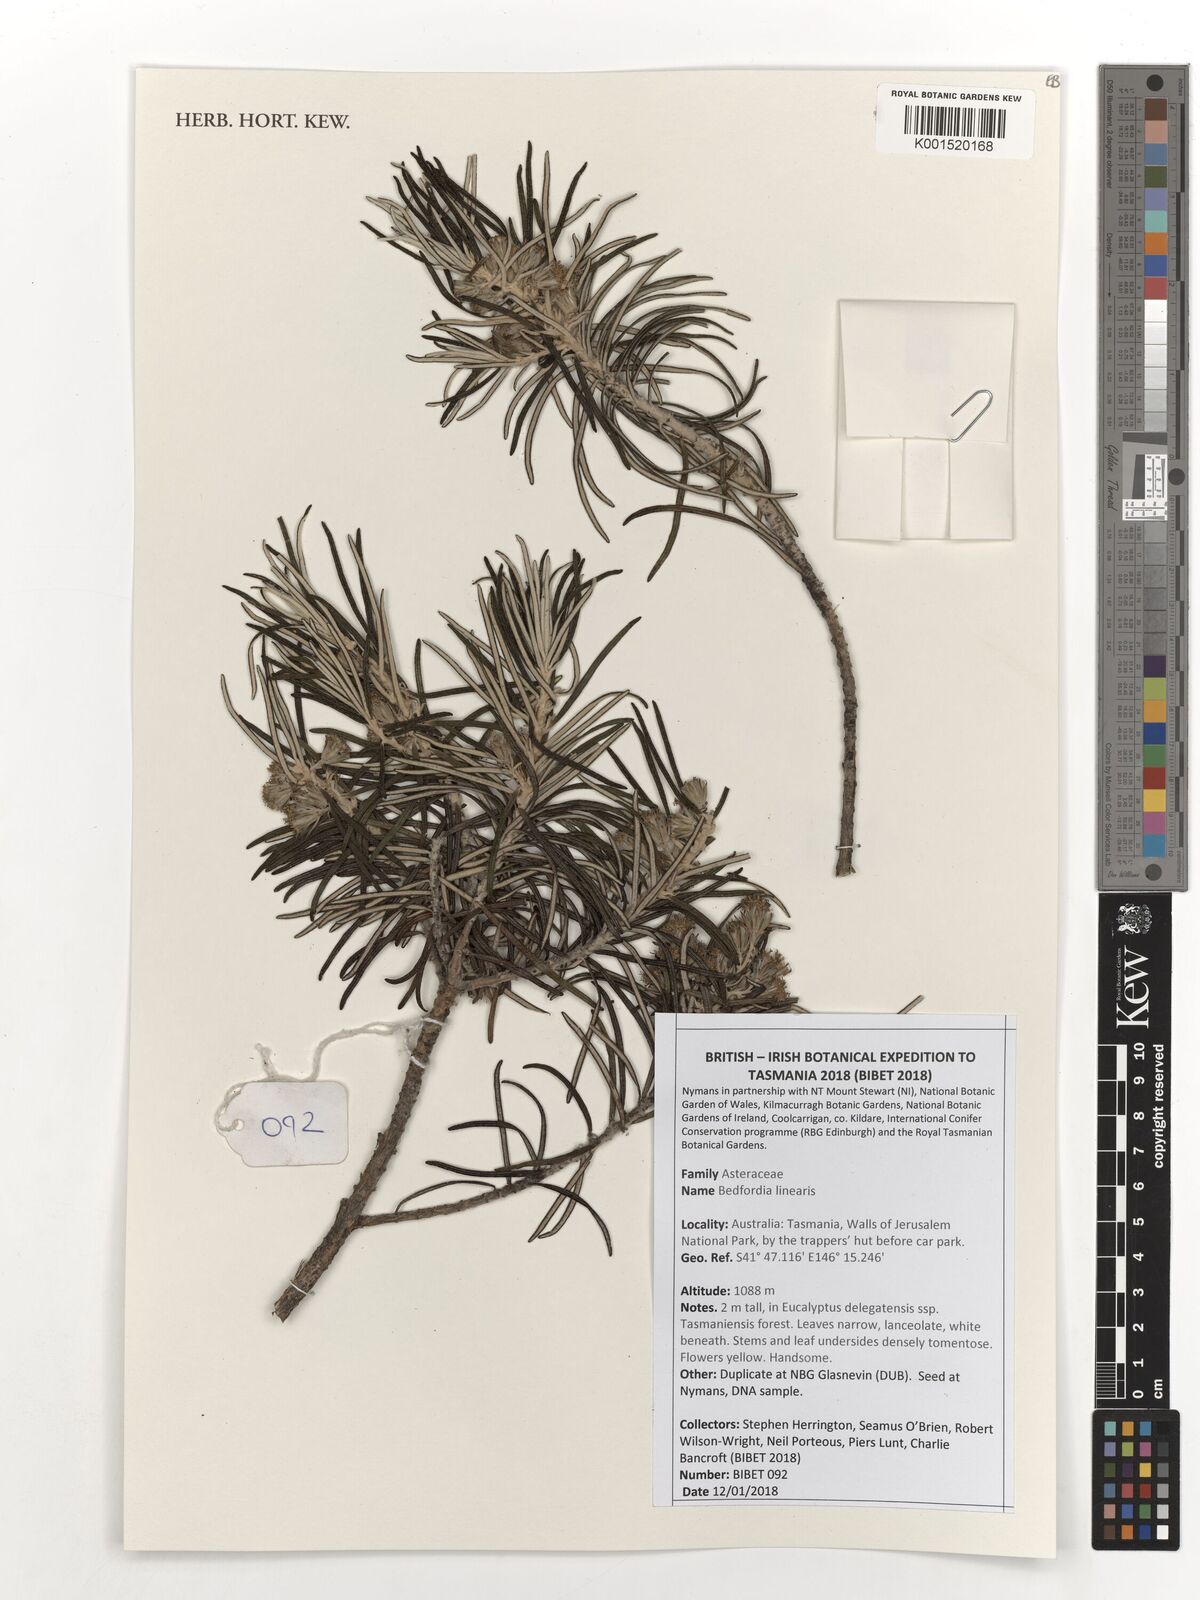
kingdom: Plantae
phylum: Tracheophyta
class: Magnoliopsida
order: Asterales
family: Asteraceae
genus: Bedfordia
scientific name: Bedfordia linearis
